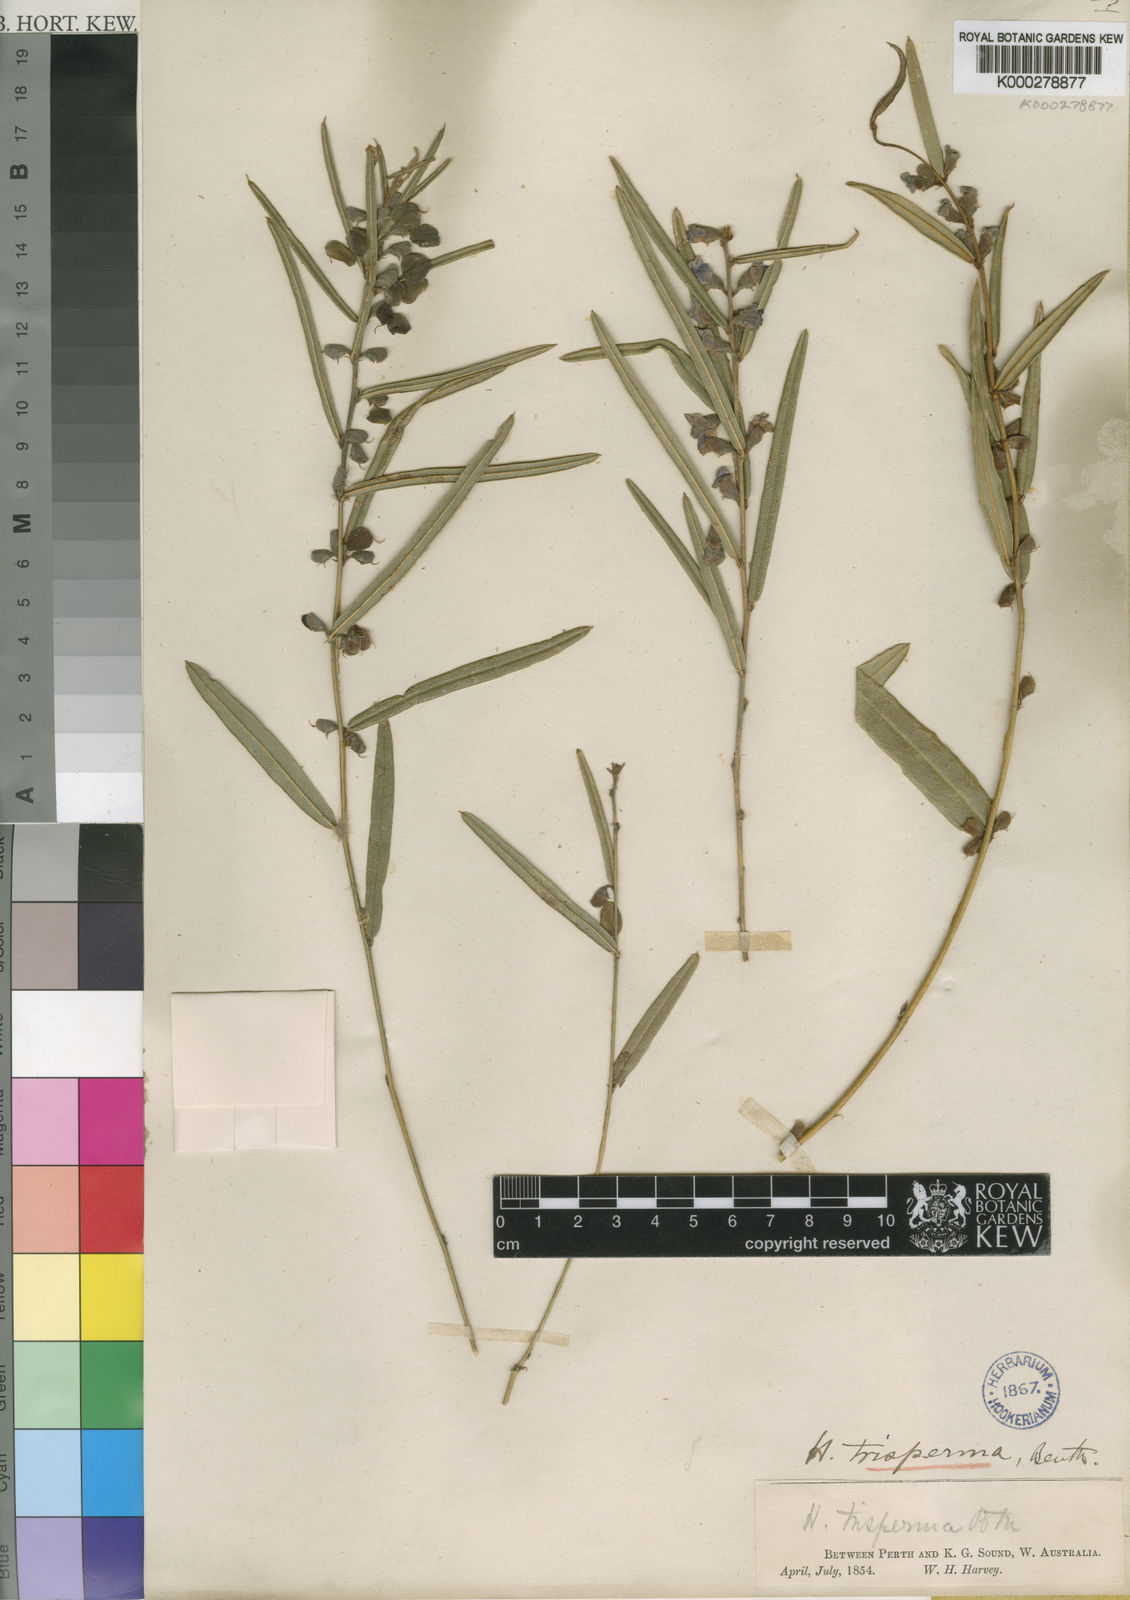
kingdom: Plantae
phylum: Tracheophyta
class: Magnoliopsida
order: Fabales
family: Fabaceae
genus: Hovea
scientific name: Hovea trisperma
